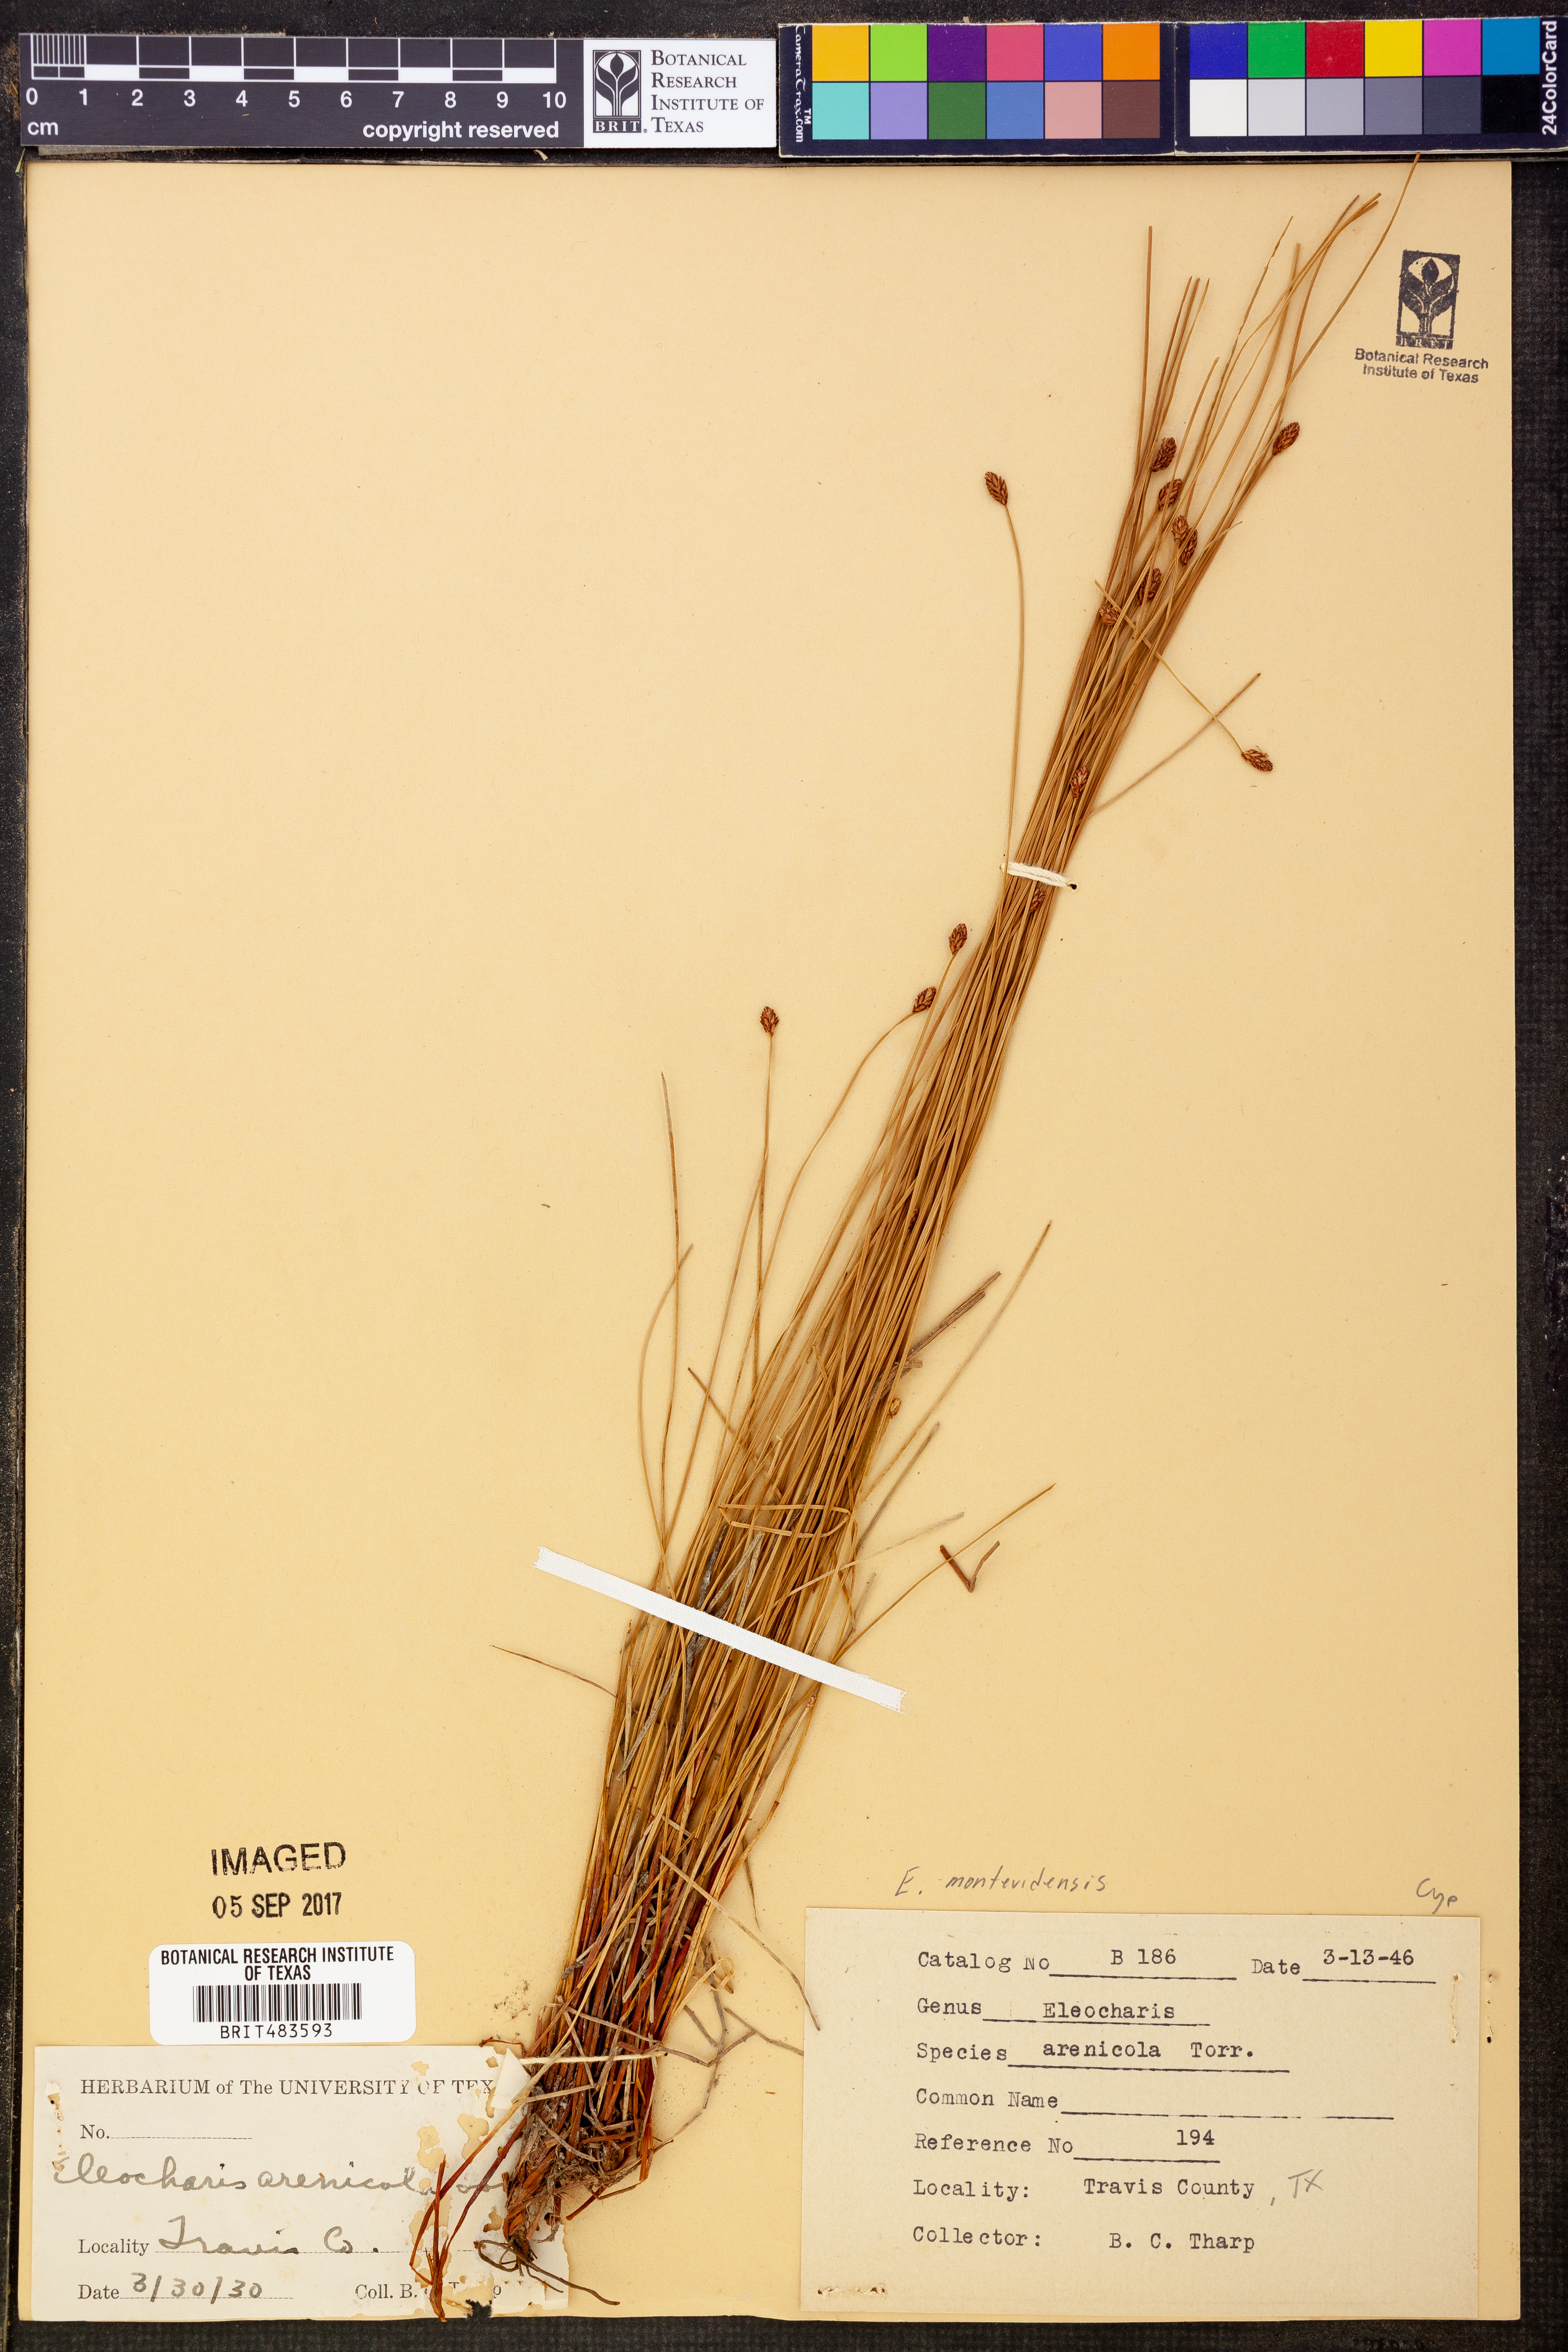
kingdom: Plantae
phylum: Tracheophyta
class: Liliopsida
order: Poales
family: Cyperaceae
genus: Eleocharis
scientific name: Eleocharis montevidensis
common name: Sand spike-rush
